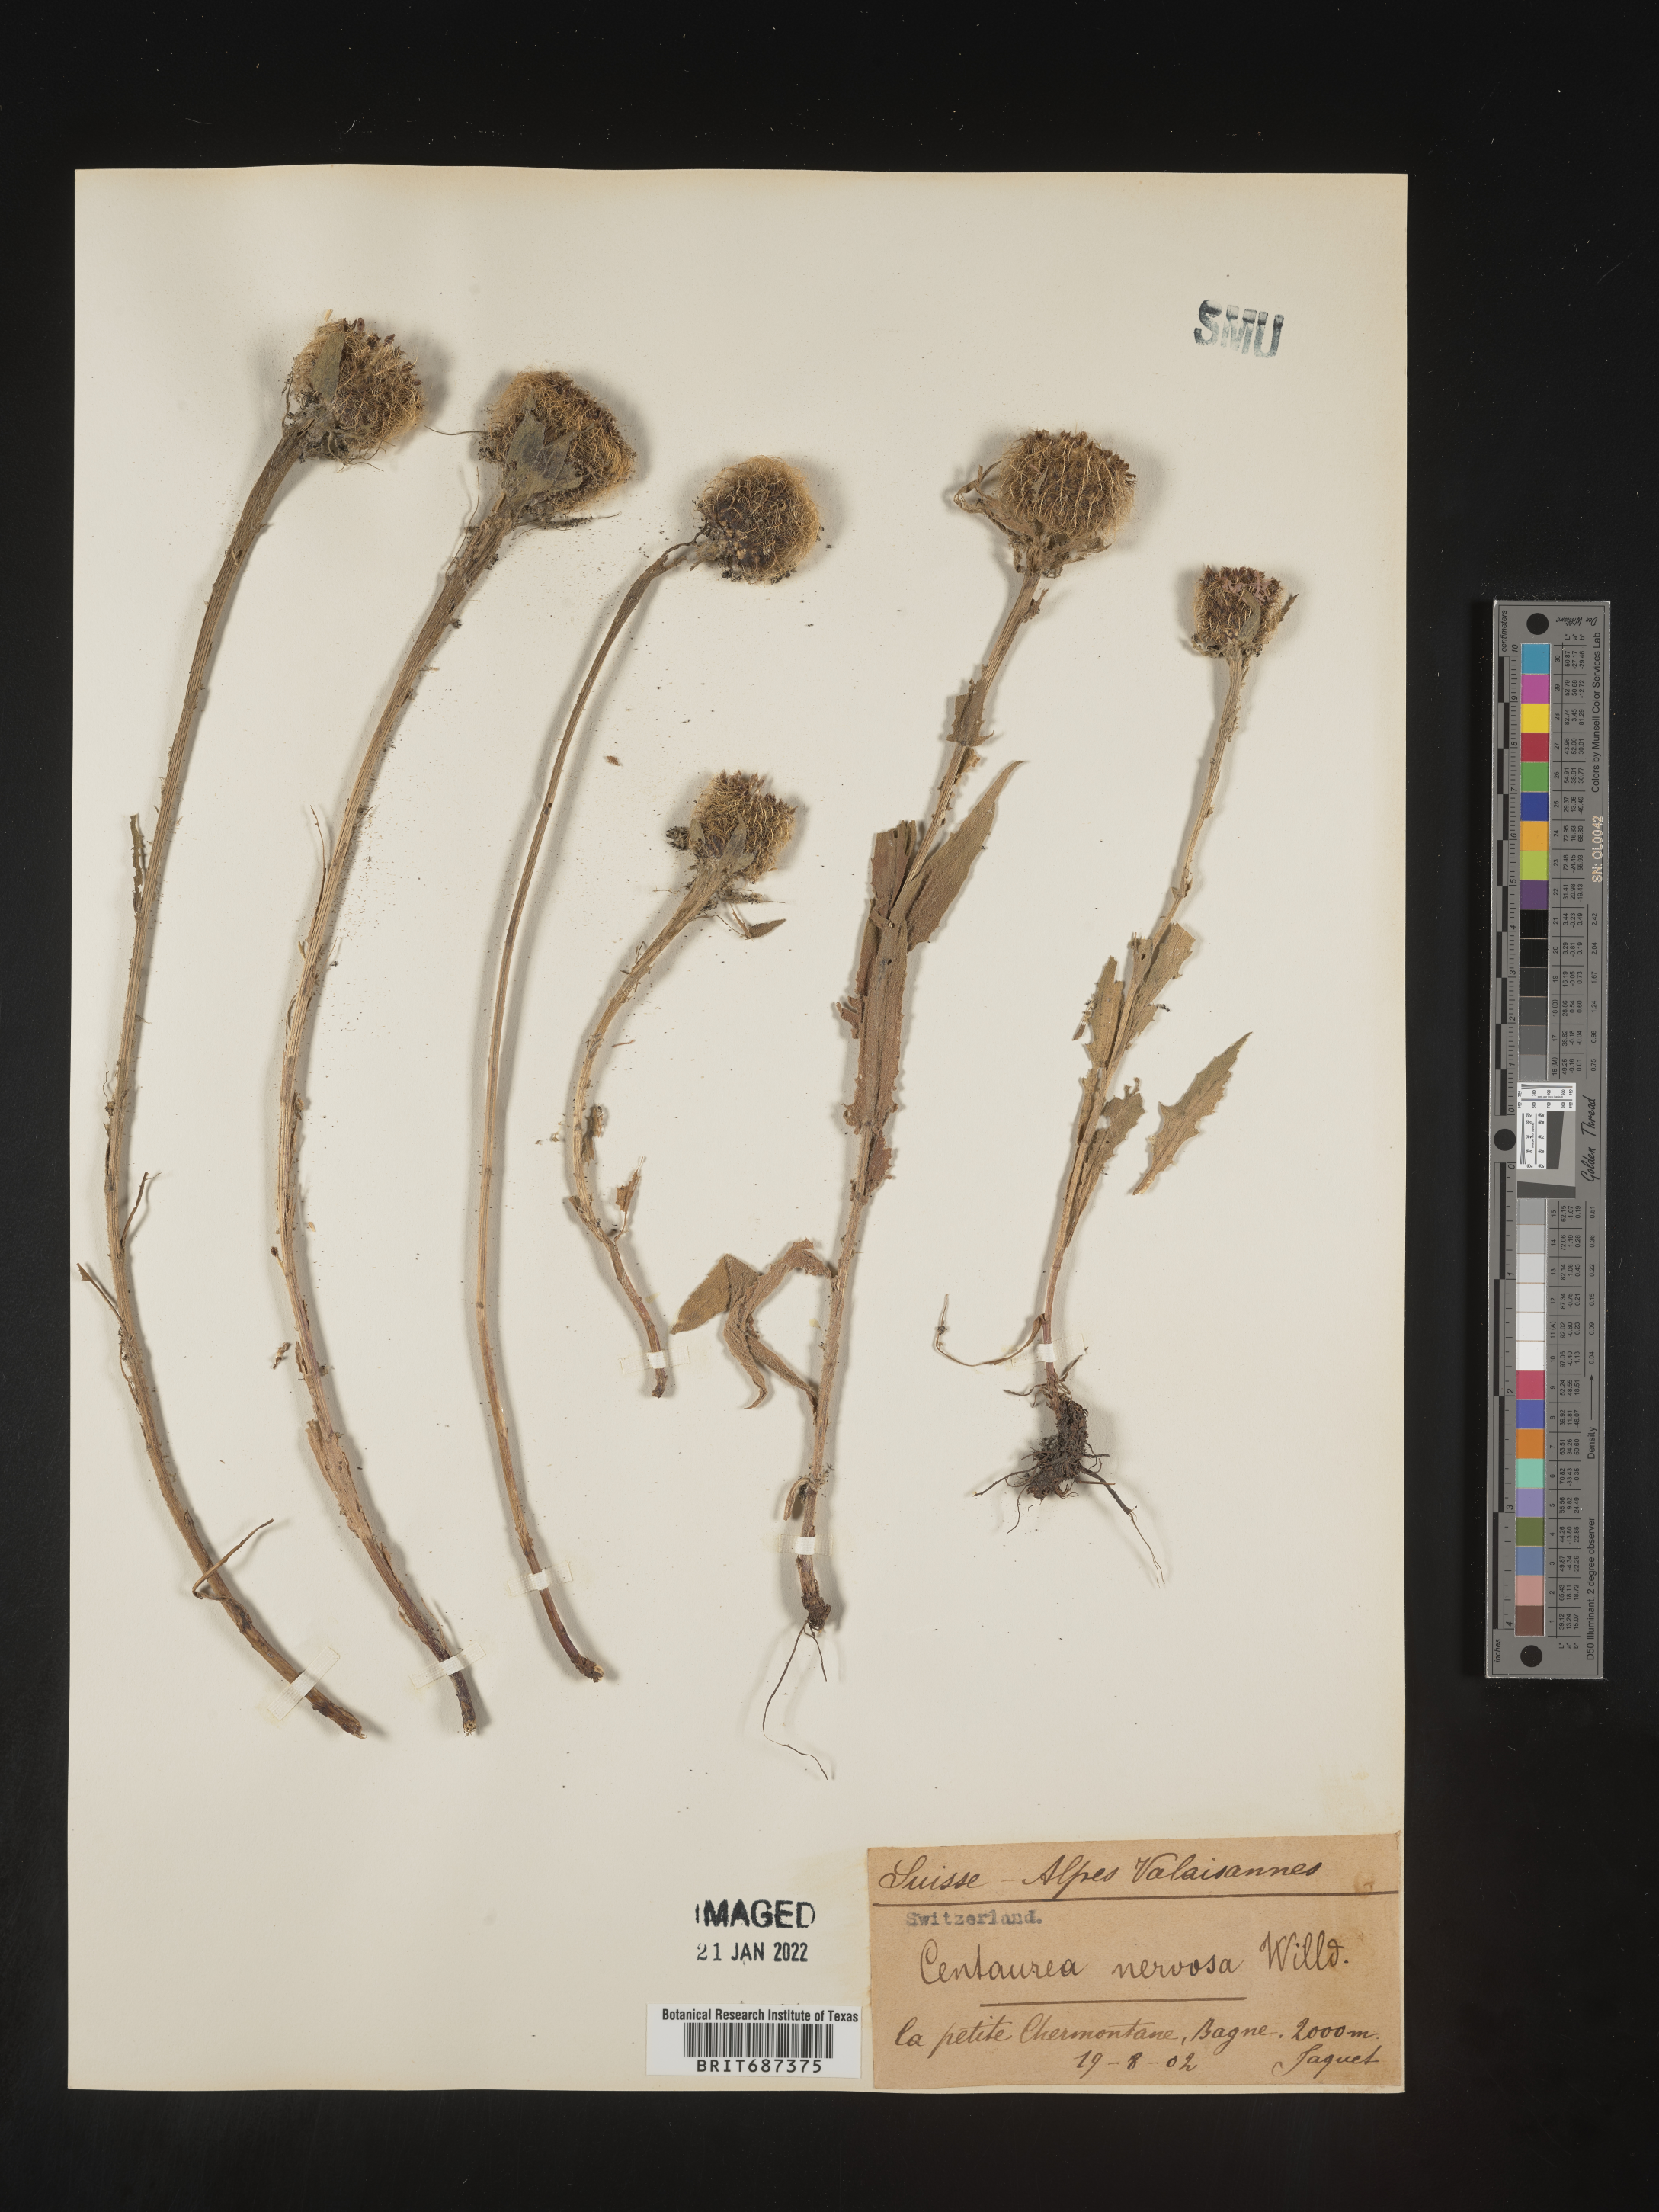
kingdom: Plantae
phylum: Tracheophyta
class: Magnoliopsida
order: Asterales
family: Asteraceae
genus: Centaurea
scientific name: Centaurea
